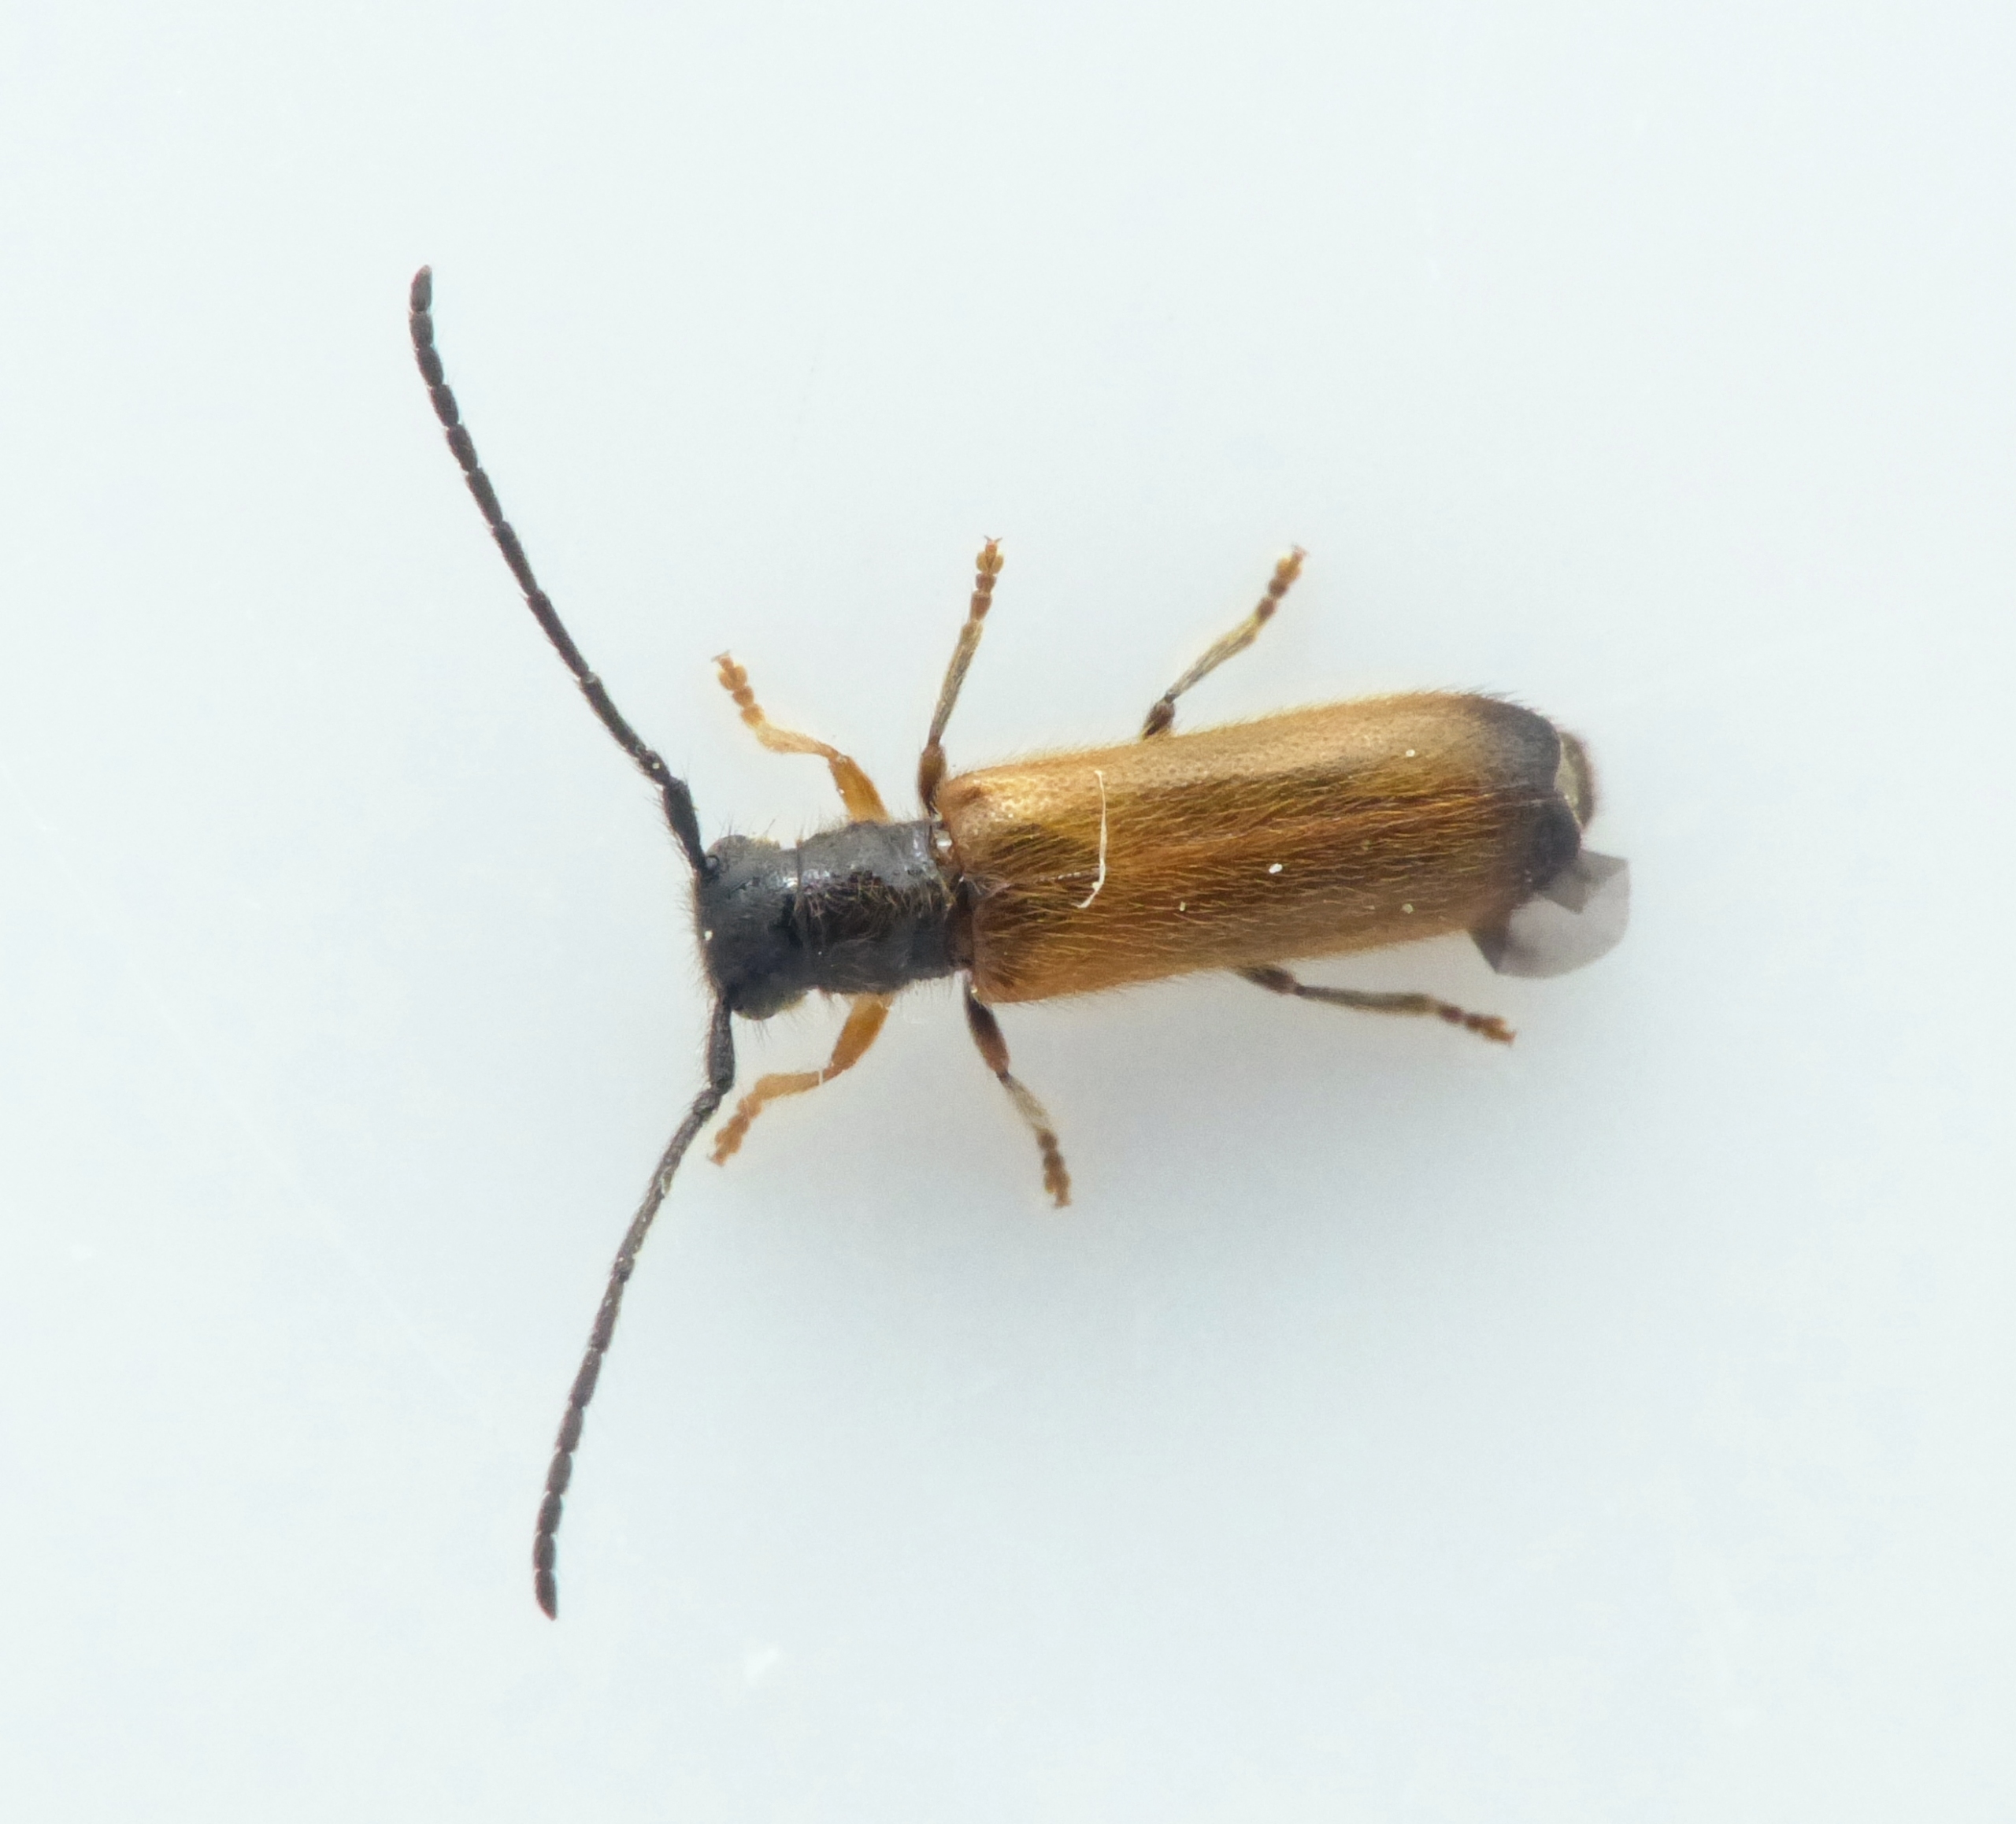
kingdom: Animalia
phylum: Arthropoda
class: Insecta
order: Coleoptera
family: Cerambycidae
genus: Tetrops
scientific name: Tetrops praeustus
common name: Dværgbuk
